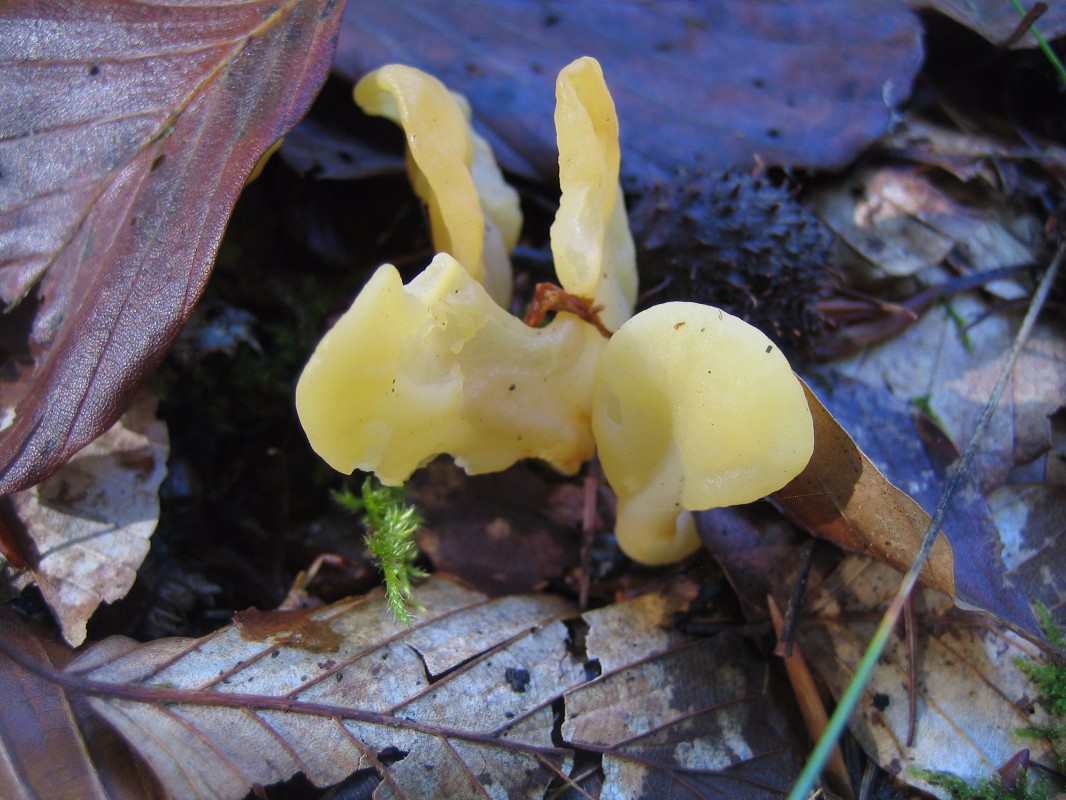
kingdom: Fungi
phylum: Ascomycota
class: Leotiomycetes
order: Rhytismatales
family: Cudoniaceae
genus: Spathularia
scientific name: Spathularia flavida
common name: gul spatelsvamp
